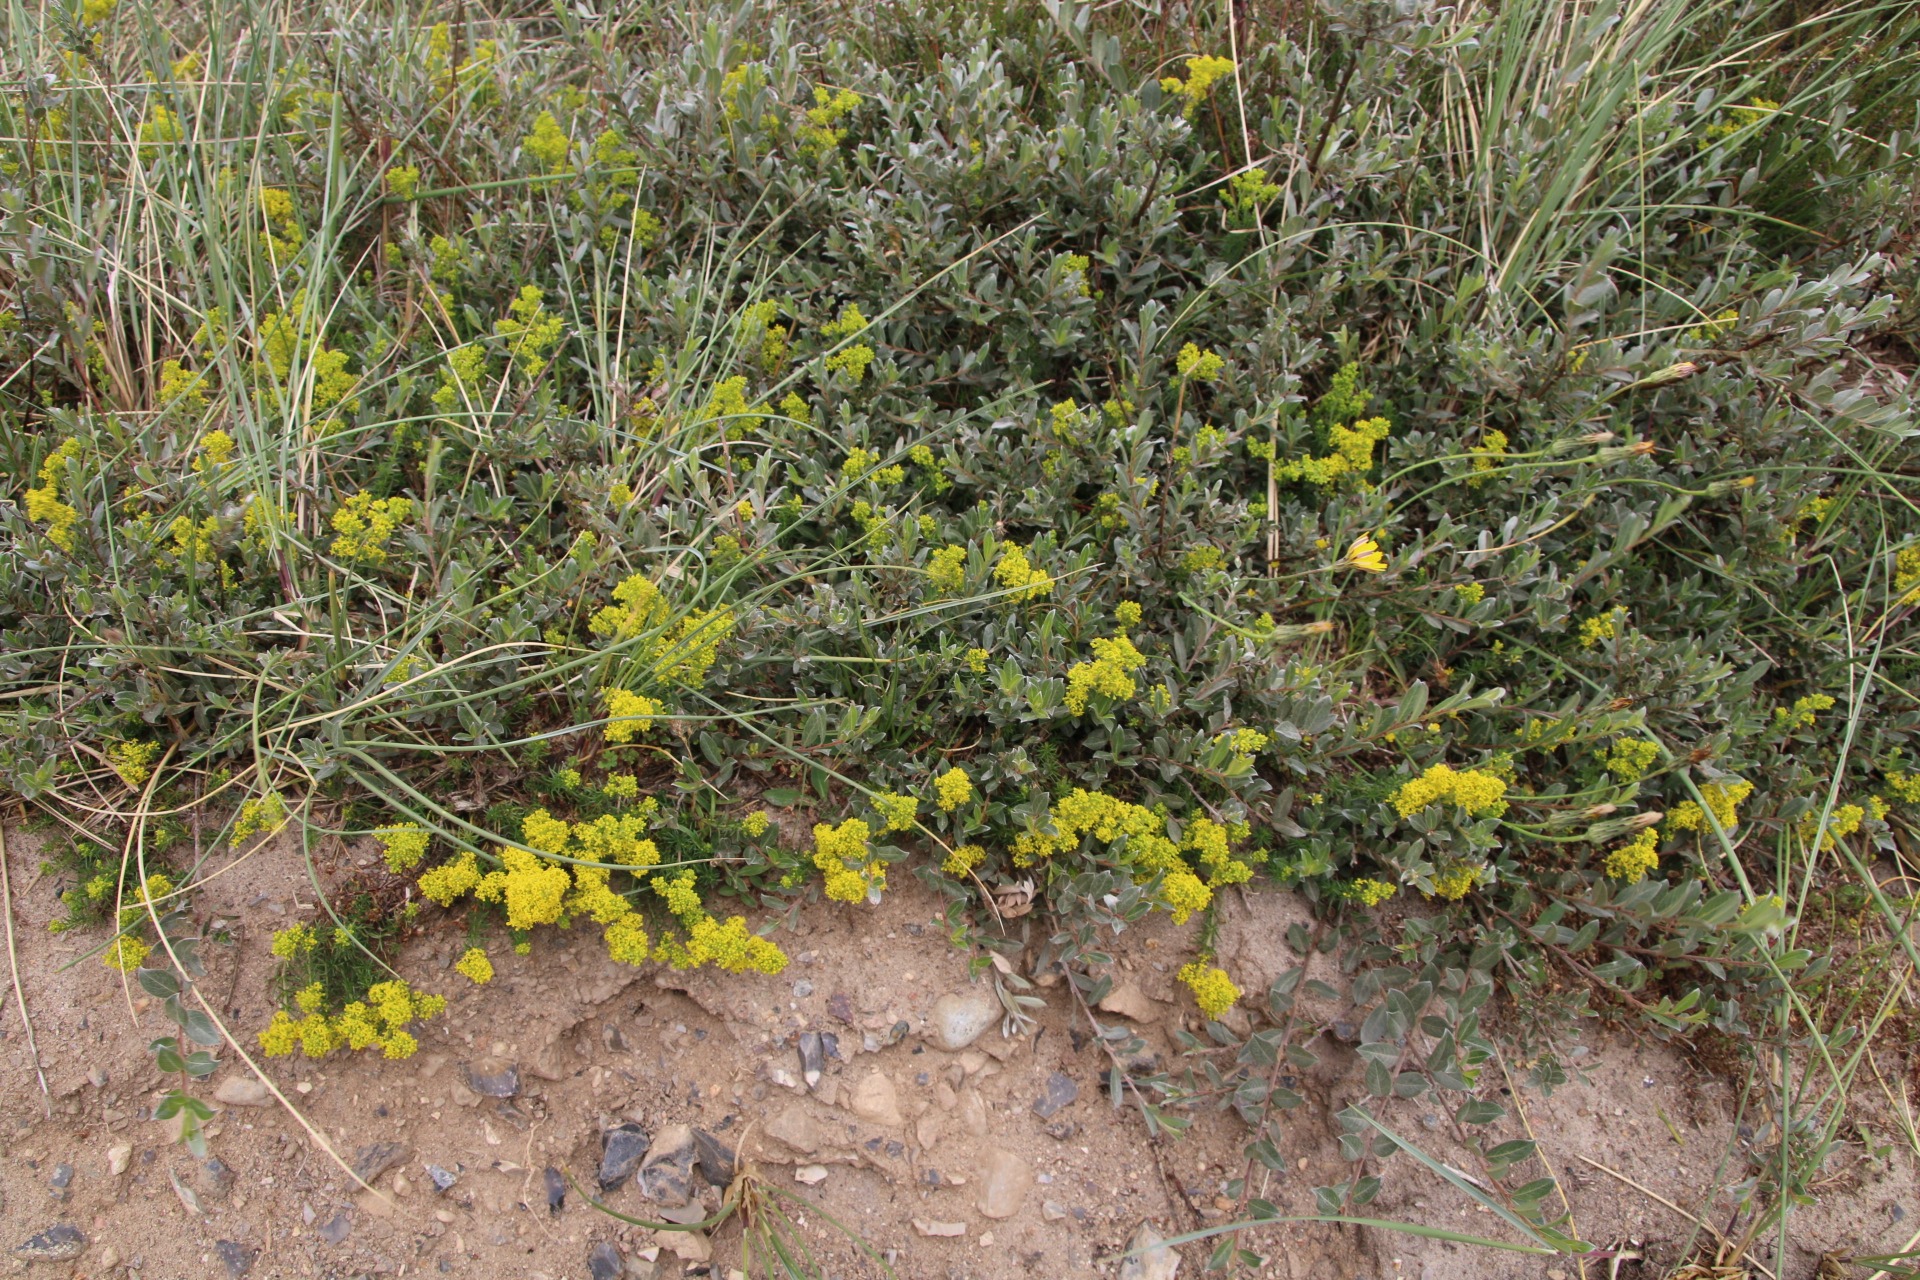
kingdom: Plantae
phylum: Tracheophyta
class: Magnoliopsida
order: Gentianales
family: Rubiaceae
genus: Galium
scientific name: Galium verum
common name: Gul snerre
